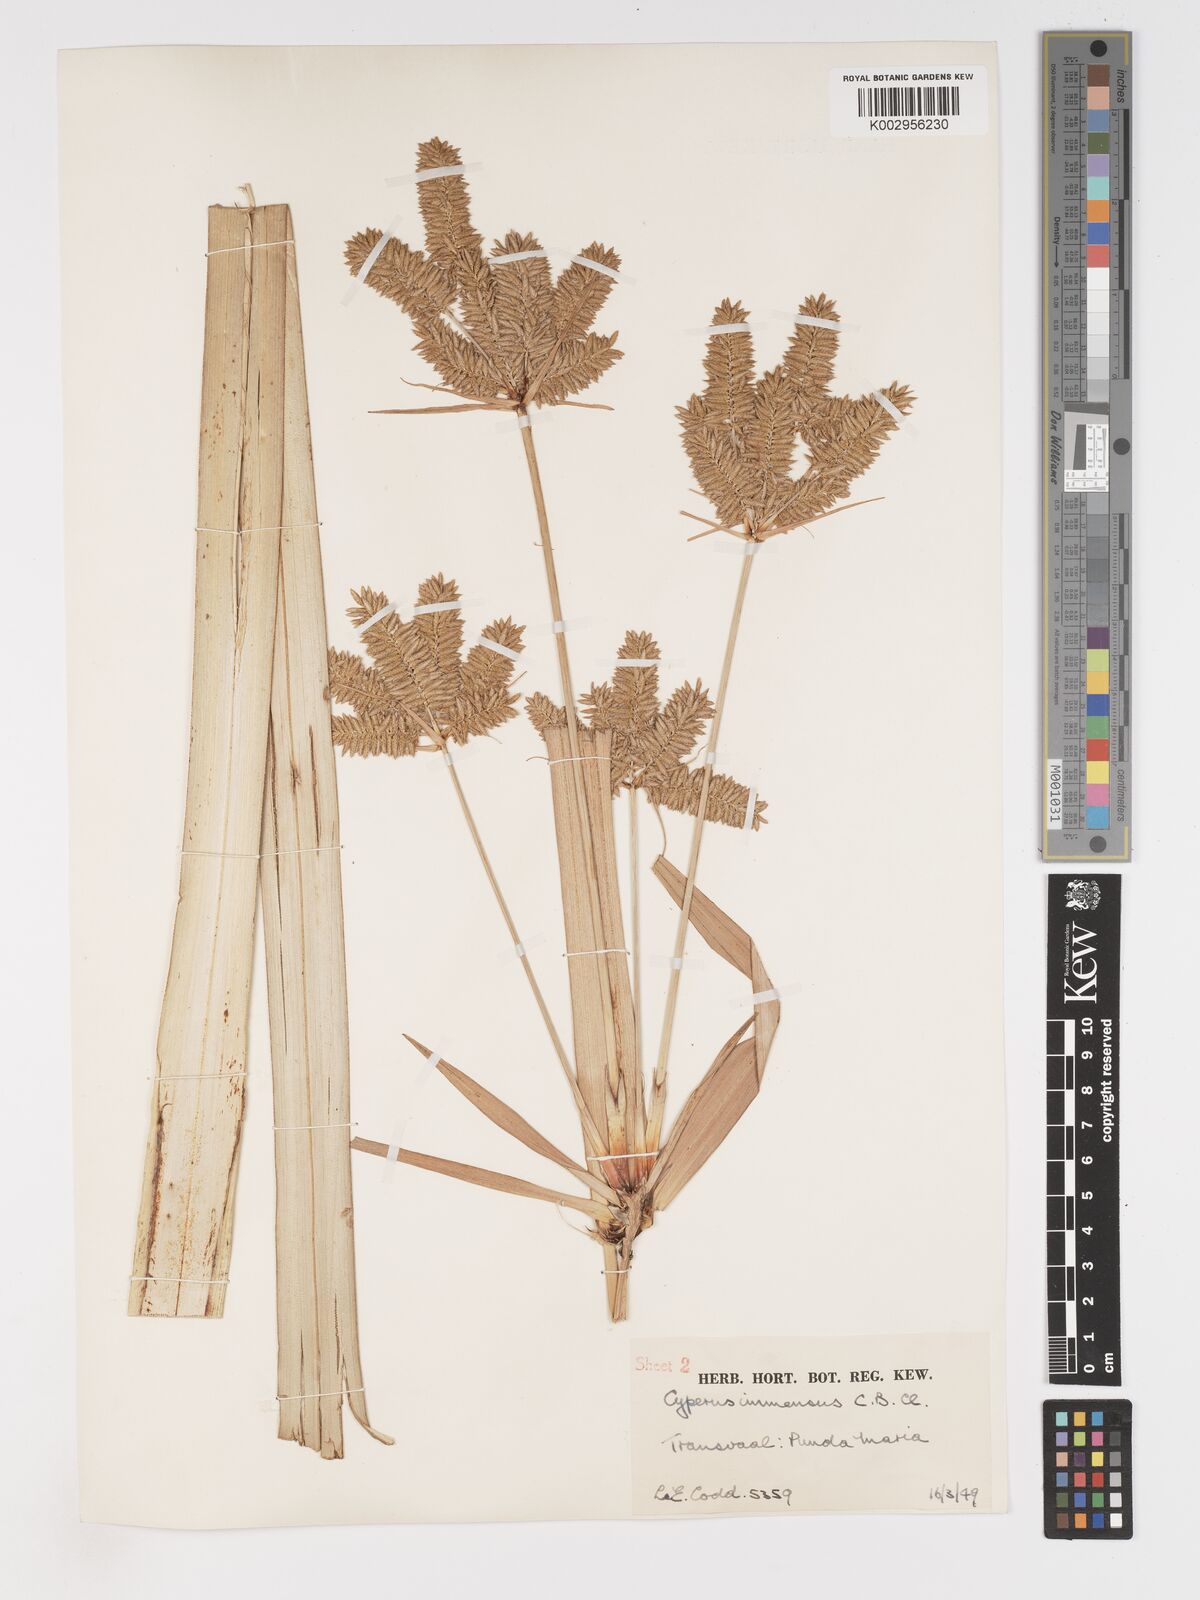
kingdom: Plantae
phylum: Tracheophyta
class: Liliopsida
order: Poales
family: Cyperaceae
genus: Cyperus
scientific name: Cyperus dives
